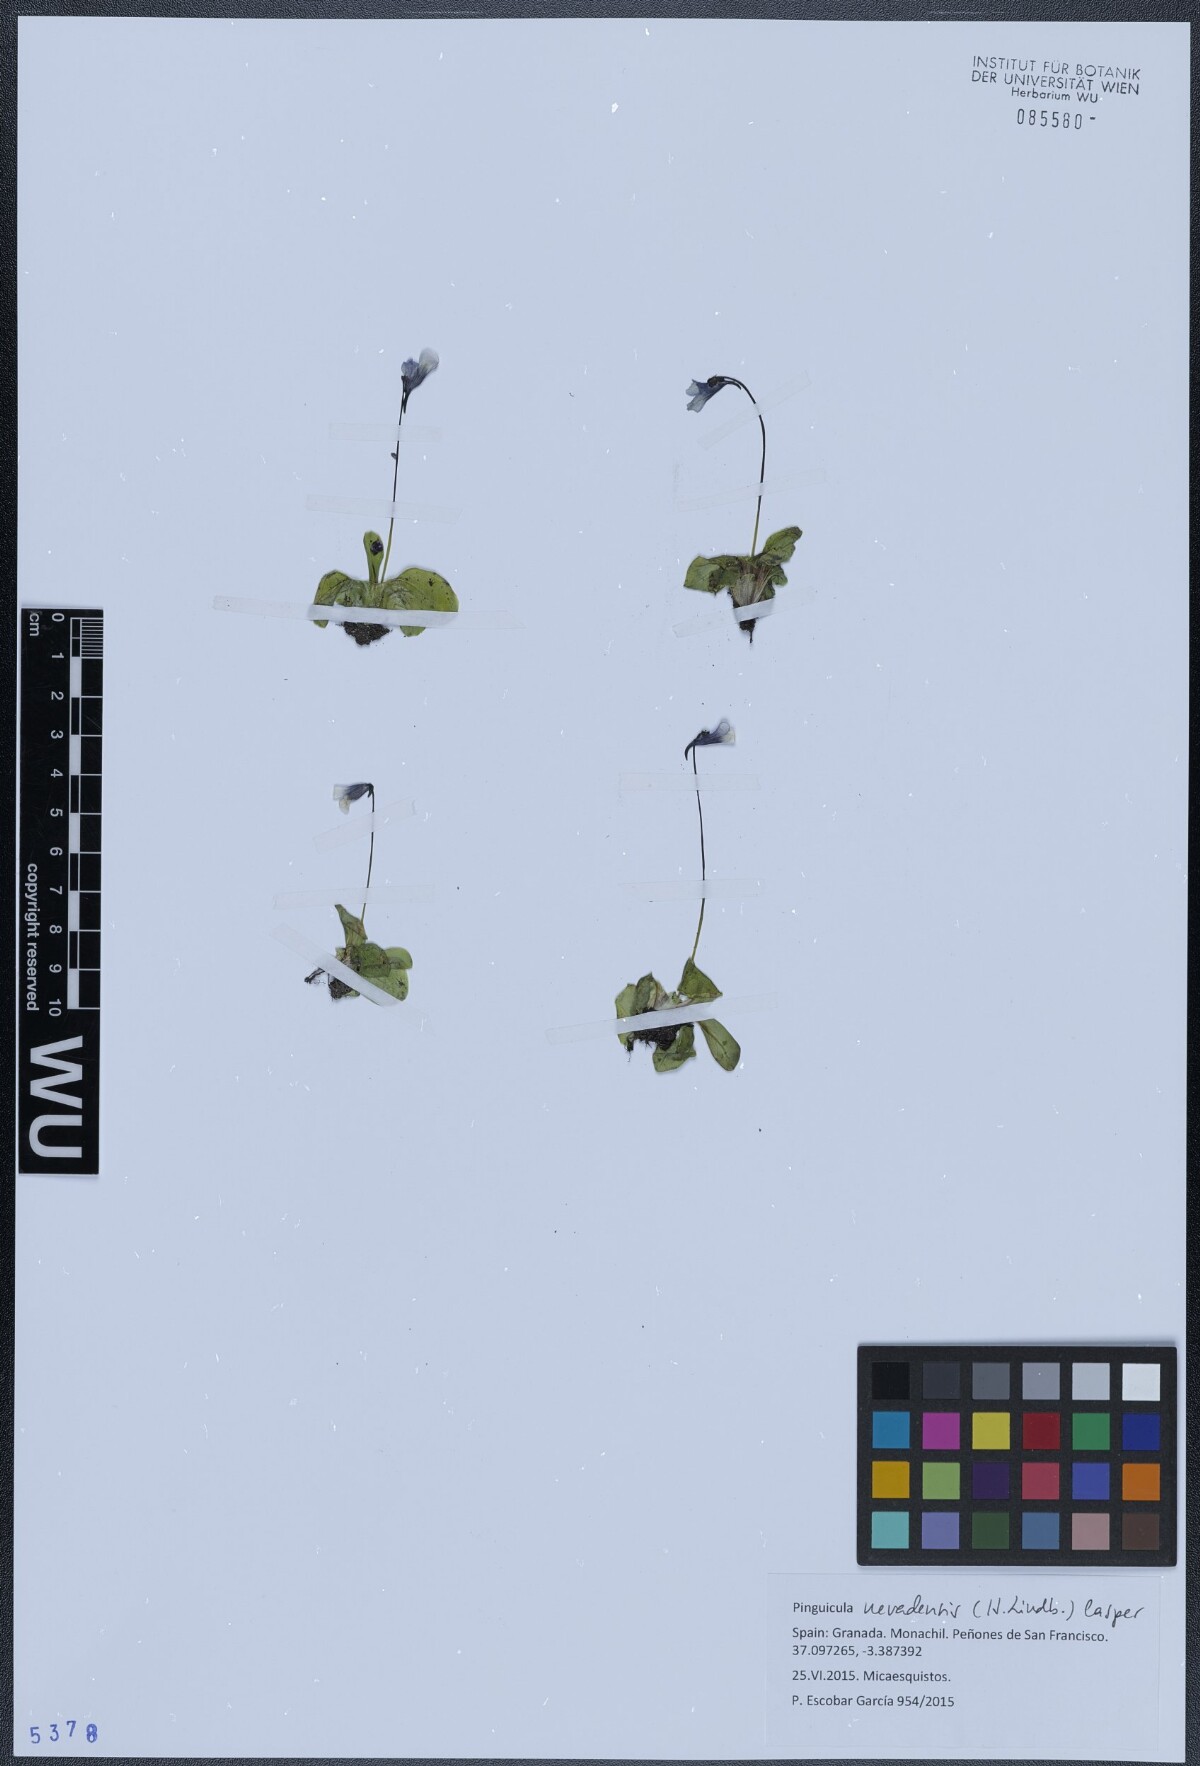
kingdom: Plantae
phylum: Tracheophyta
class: Magnoliopsida
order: Lamiales
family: Lentibulariaceae
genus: Pinguicula
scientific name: Pinguicula nevadensis
